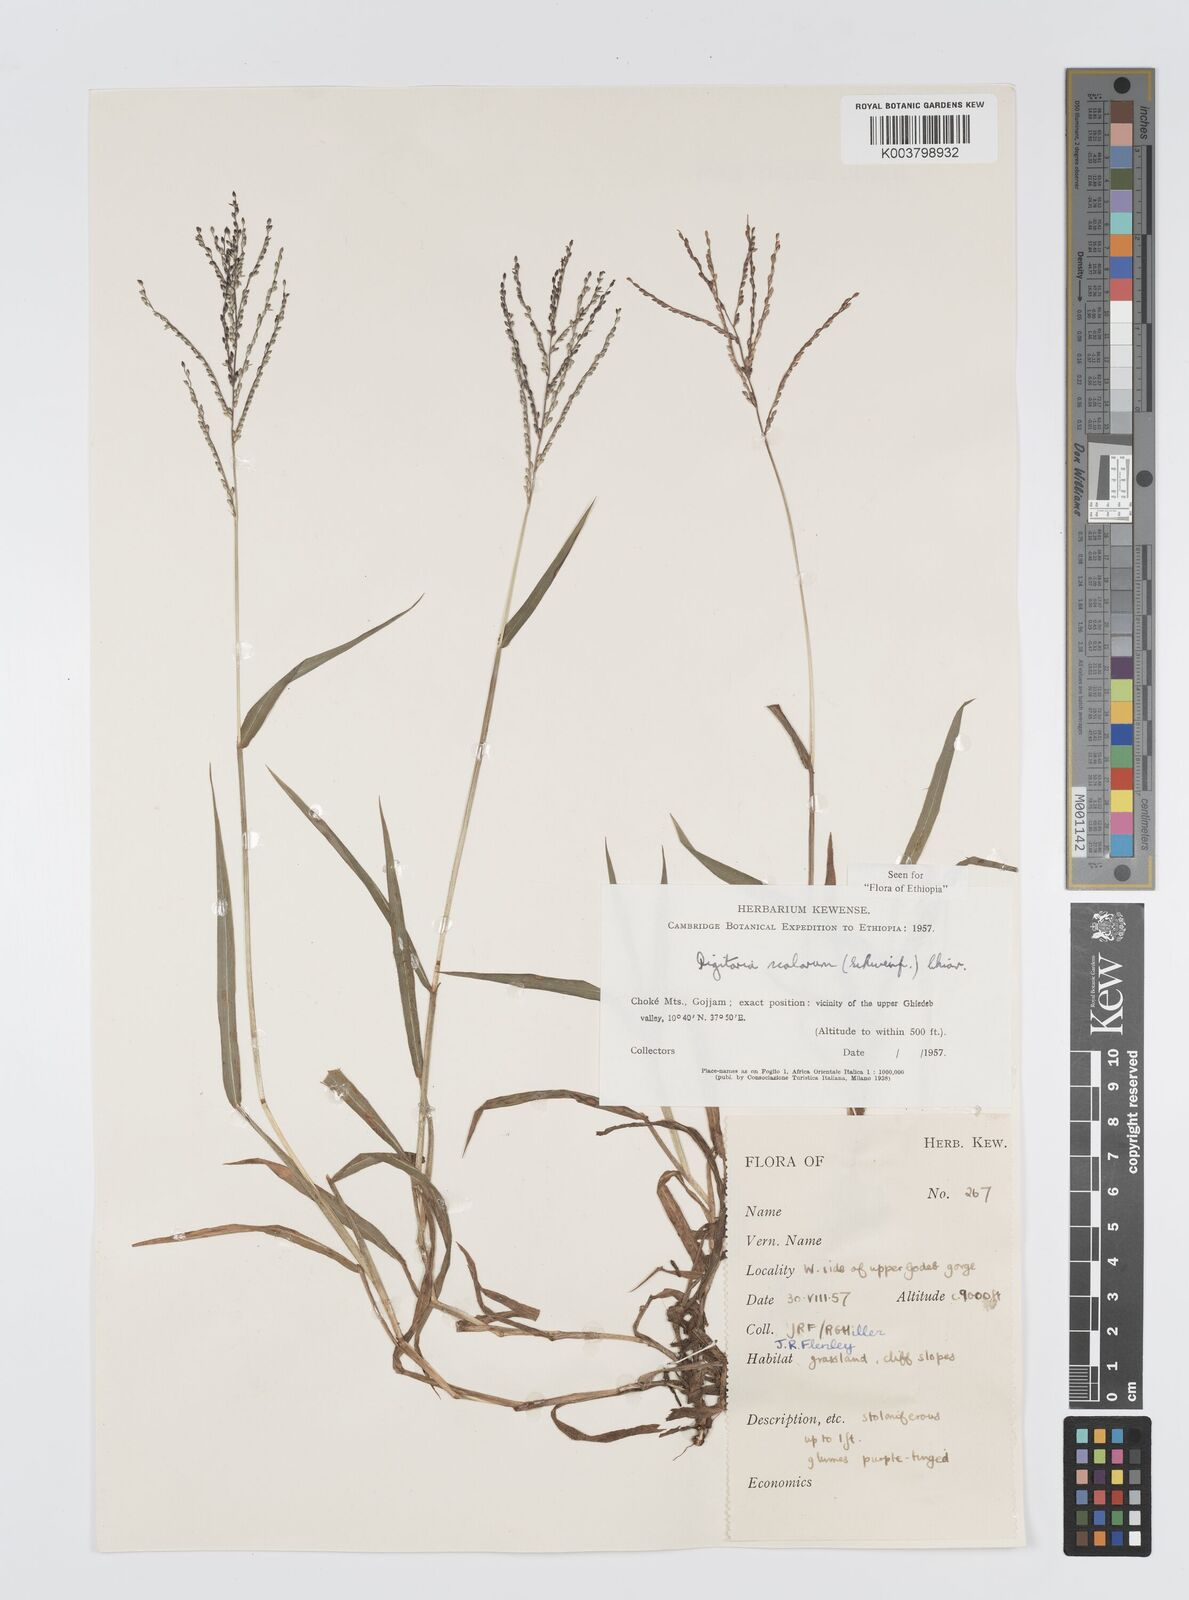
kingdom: Plantae
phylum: Tracheophyta
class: Liliopsida
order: Poales
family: Poaceae
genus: Digitaria
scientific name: Digitaria abyssinica
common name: African couchgrass
